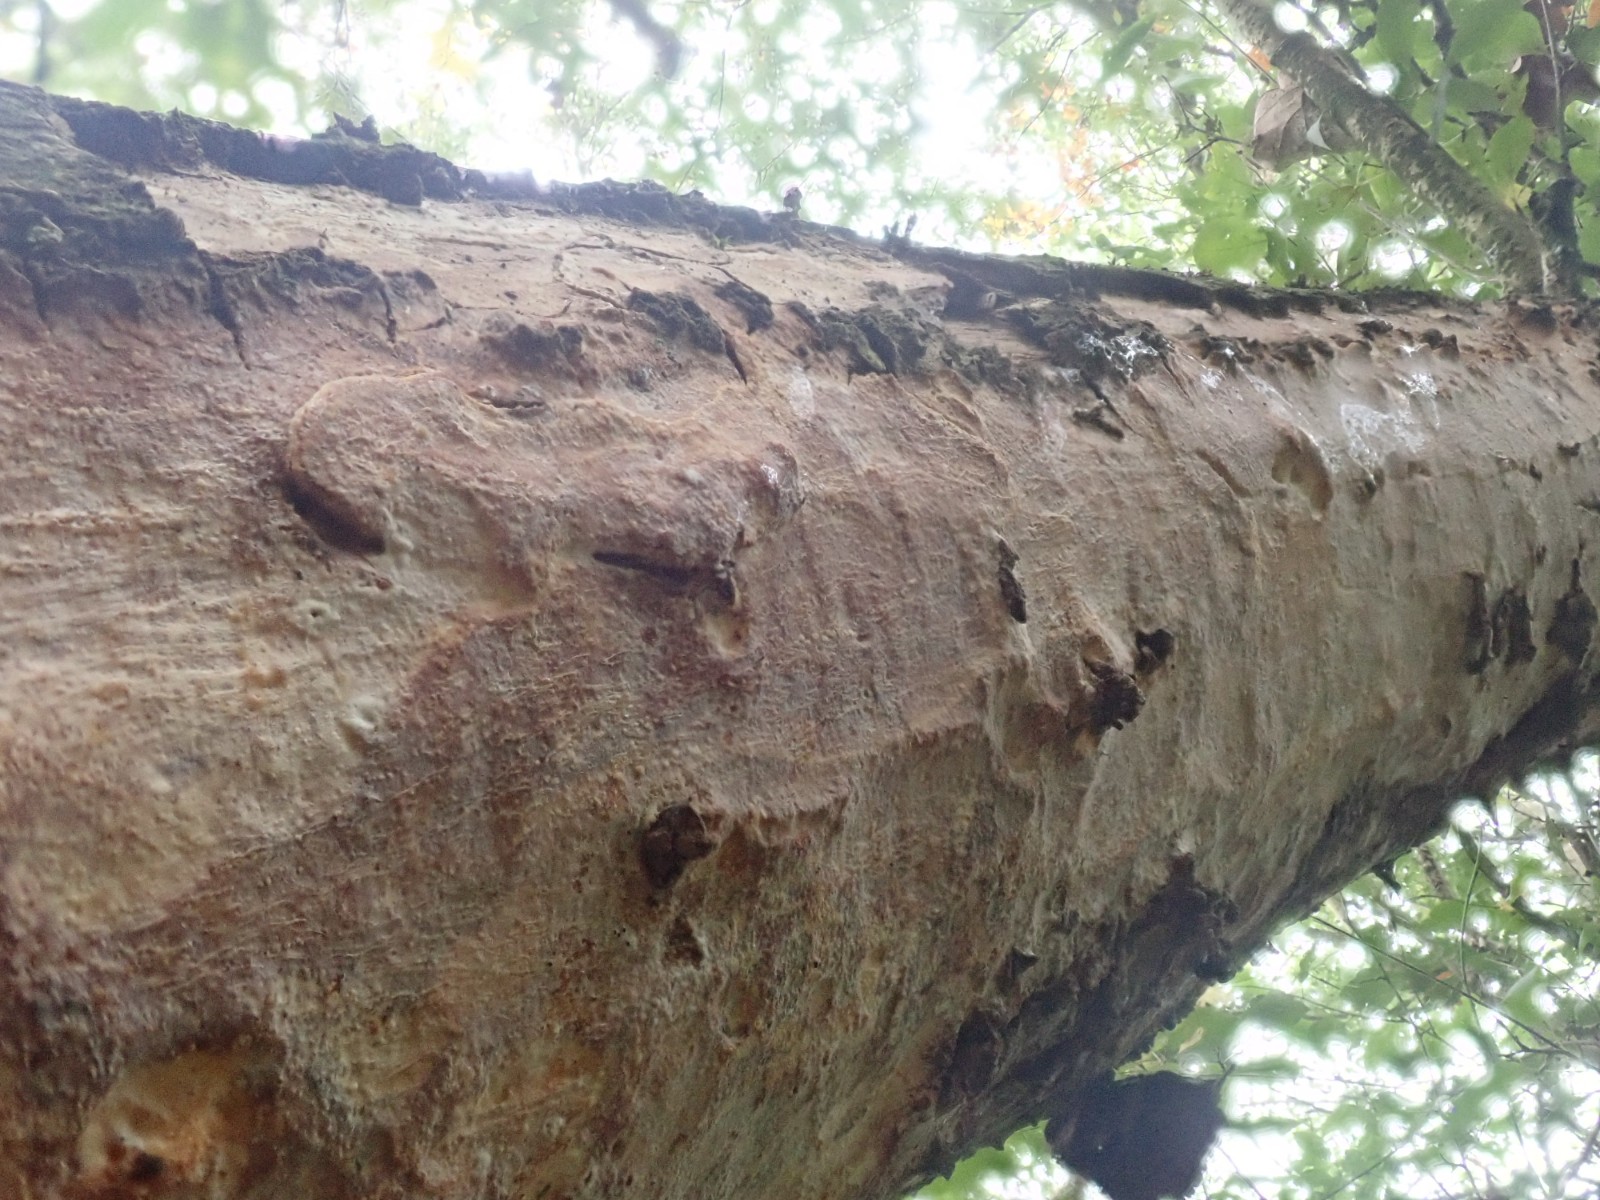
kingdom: Fungi
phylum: Basidiomycota
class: Agaricomycetes
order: Corticiales
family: Vuilleminiaceae
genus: Vuilleminia
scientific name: Vuilleminia comedens
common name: almindelig barksprænger
